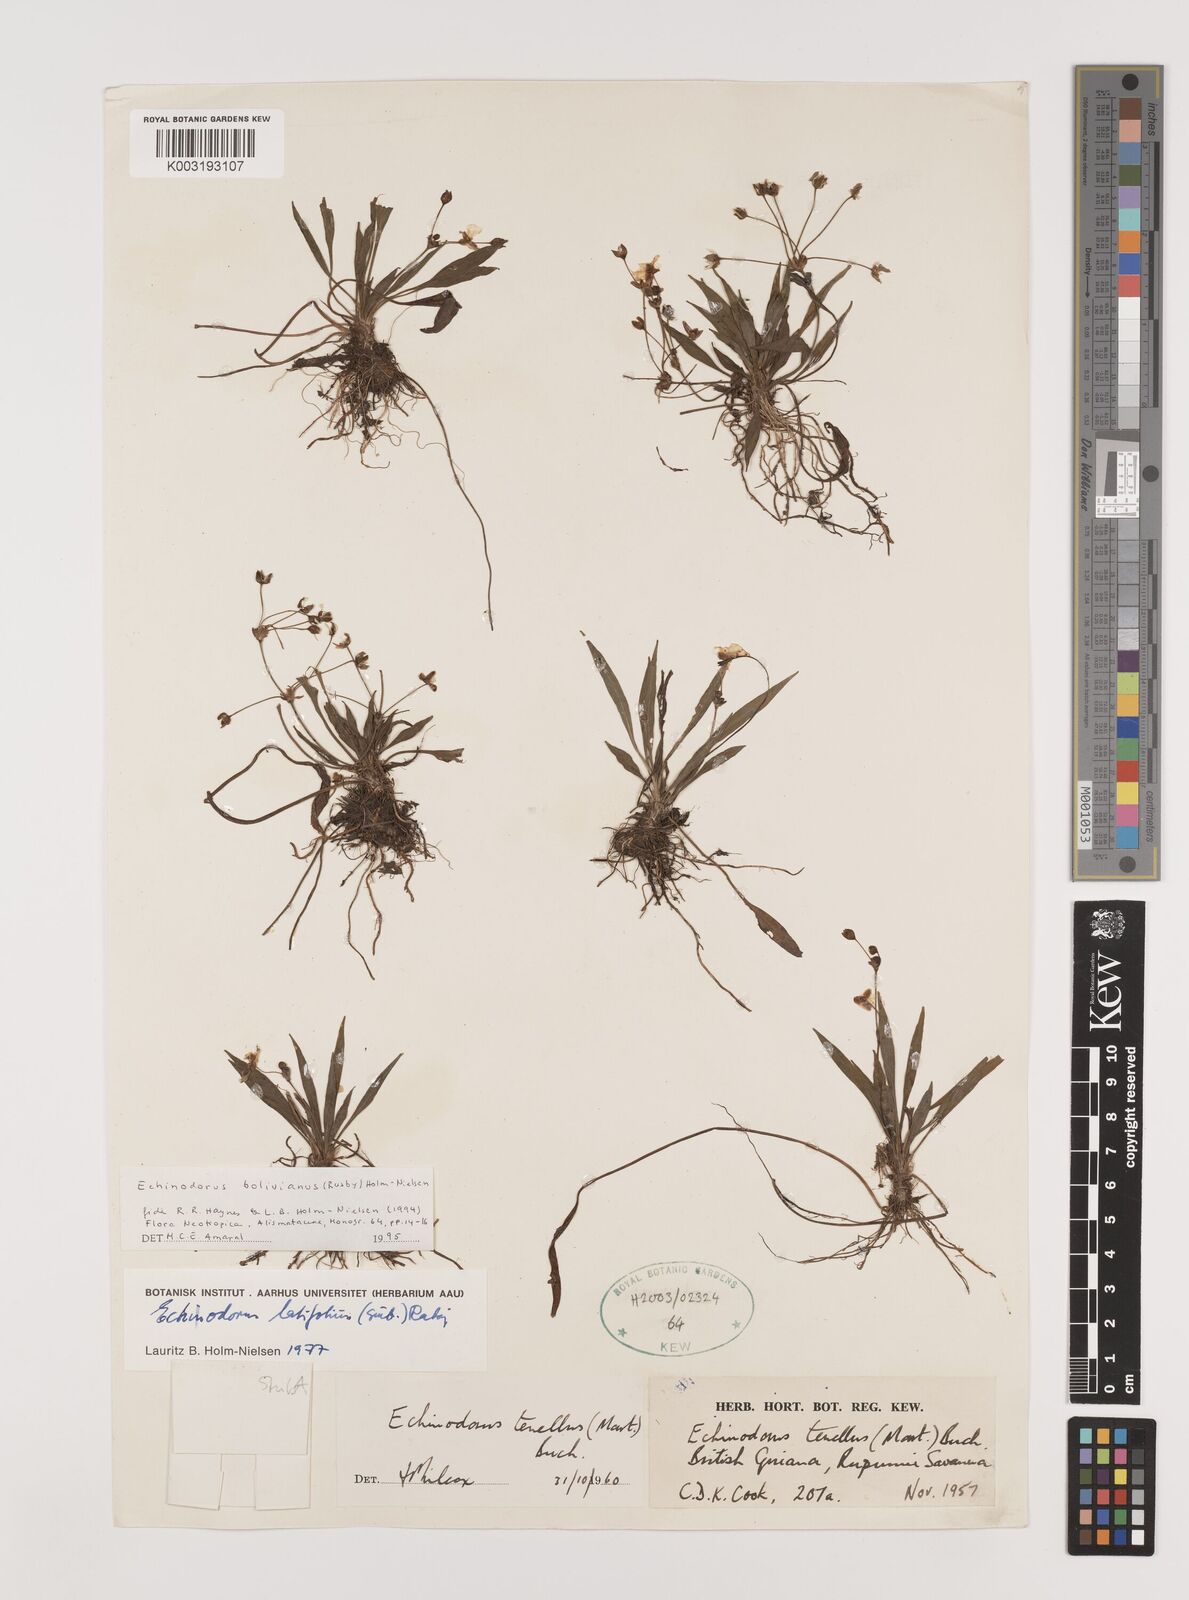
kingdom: Plantae
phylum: Tracheophyta
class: Liliopsida
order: Alismatales
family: Alismataceae
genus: Helanthium
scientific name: Helanthium bolivianum
